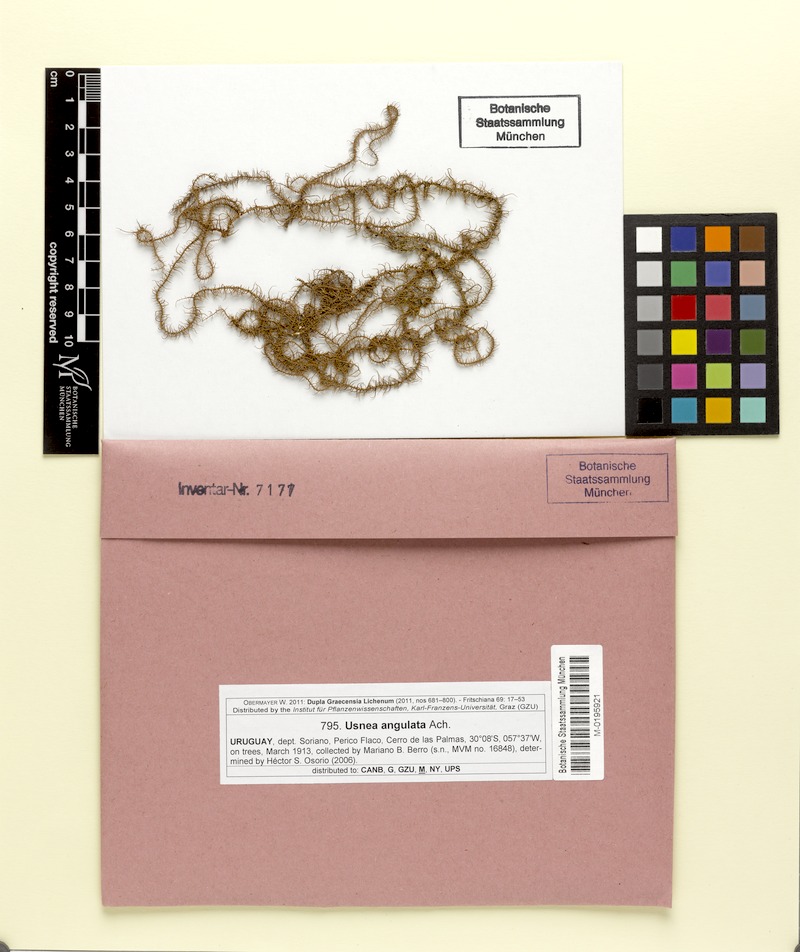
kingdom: Fungi
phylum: Ascomycota
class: Lecanoromycetes
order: Lecanorales
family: Parmeliaceae
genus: Usnea
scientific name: Usnea angulata
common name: Old-man’s beard lichen
